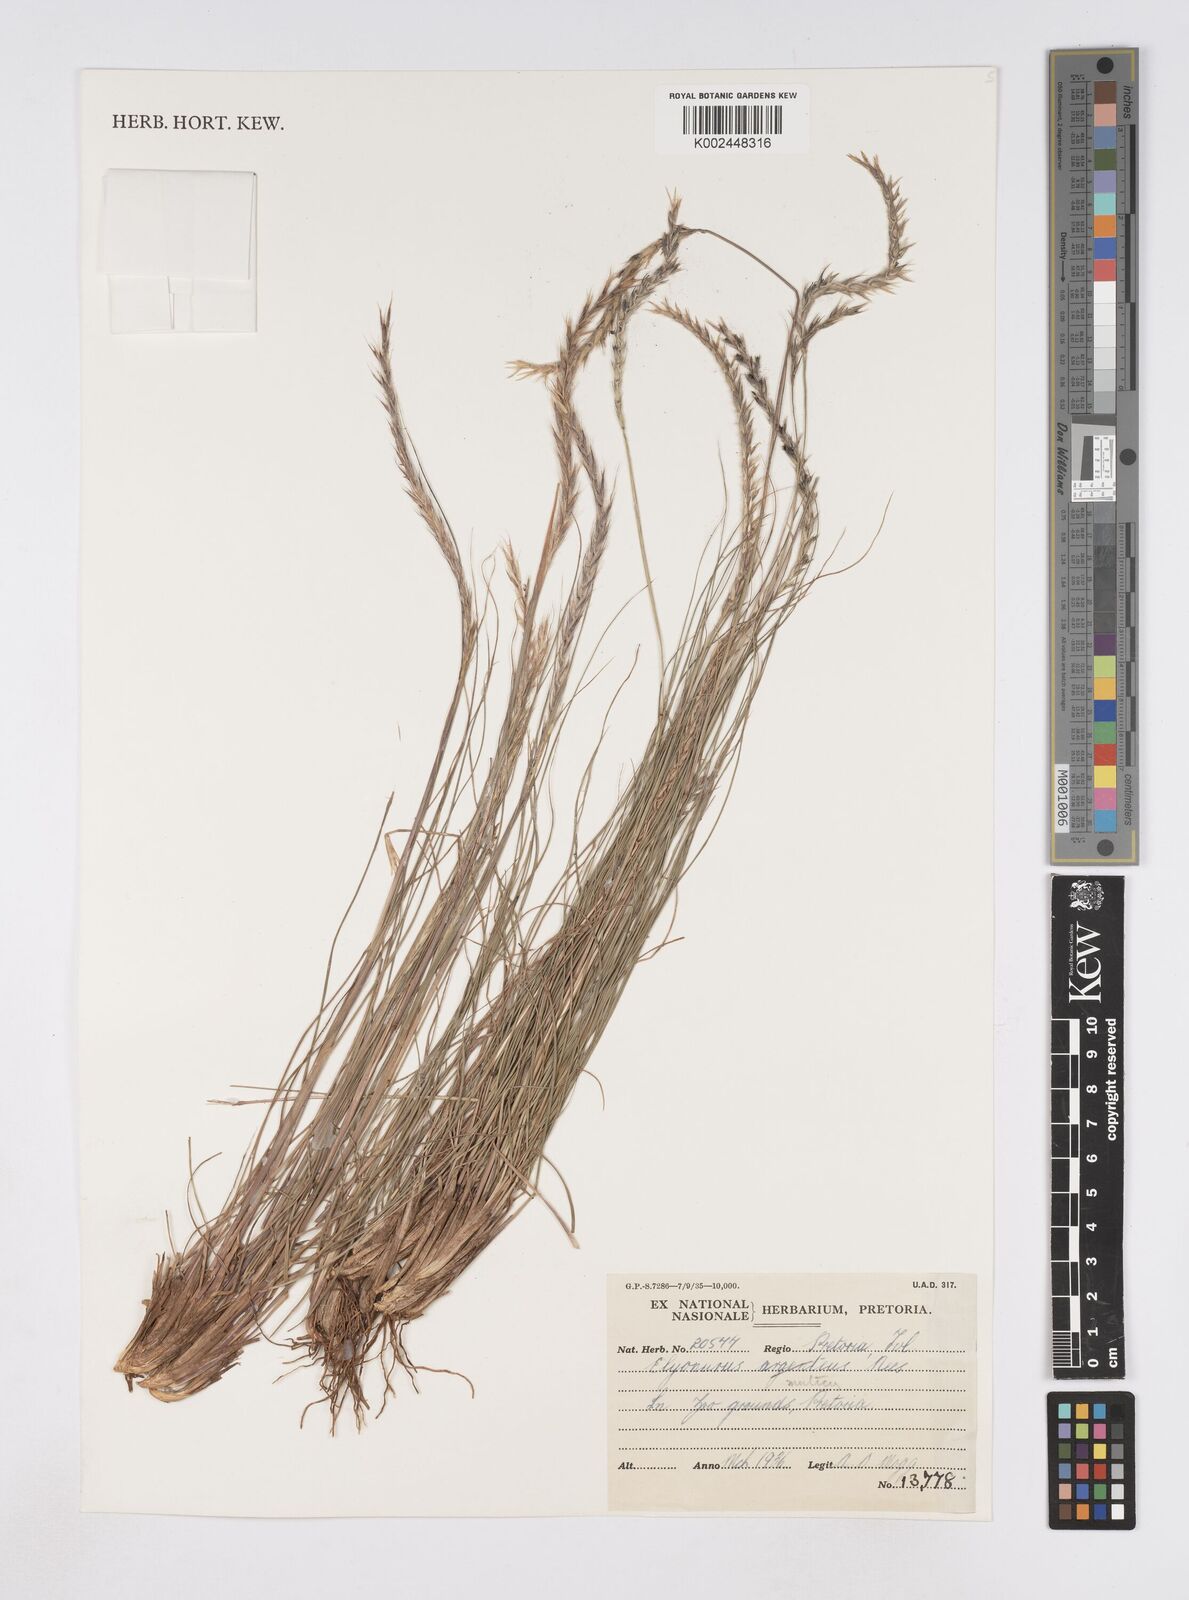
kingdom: Plantae
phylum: Tracheophyta
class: Liliopsida
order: Poales
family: Poaceae
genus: Elionurus
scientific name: Elionurus muticus
